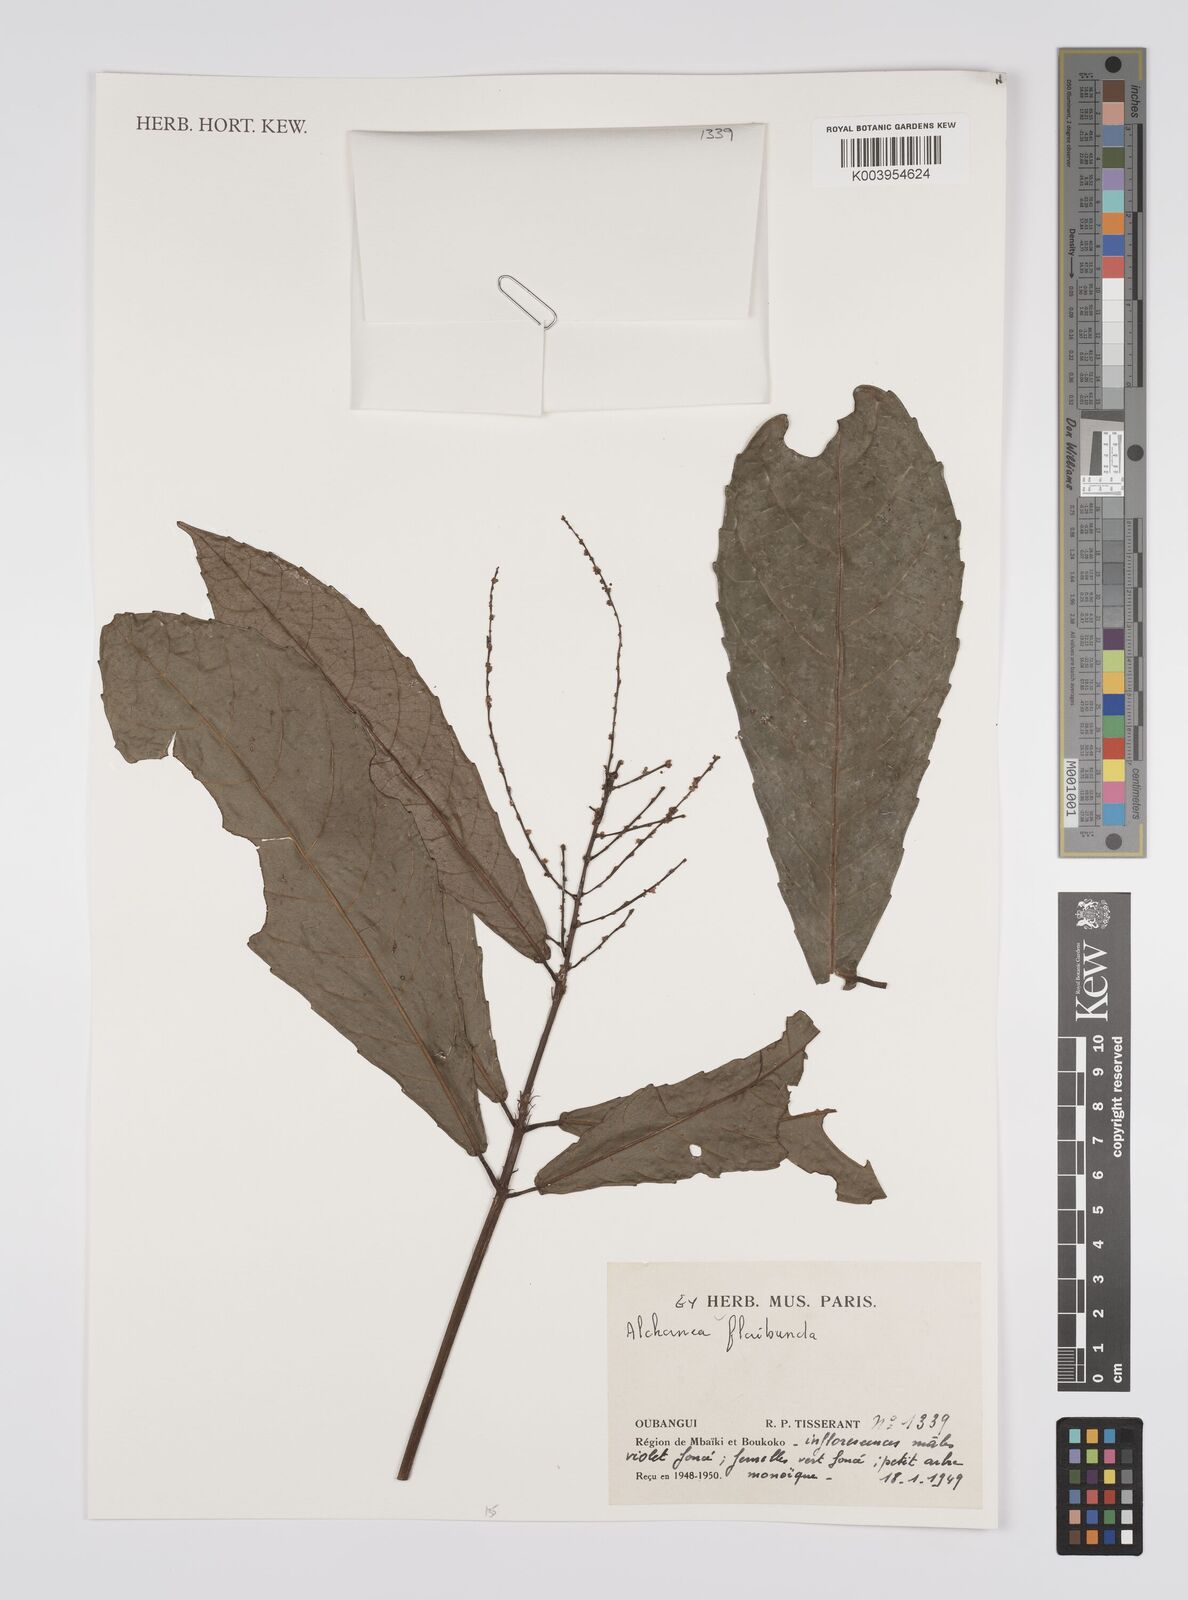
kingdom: Plantae
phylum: Tracheophyta
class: Magnoliopsida
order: Malpighiales
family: Euphorbiaceae
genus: Alchornea
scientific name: Alchornea floribunda
